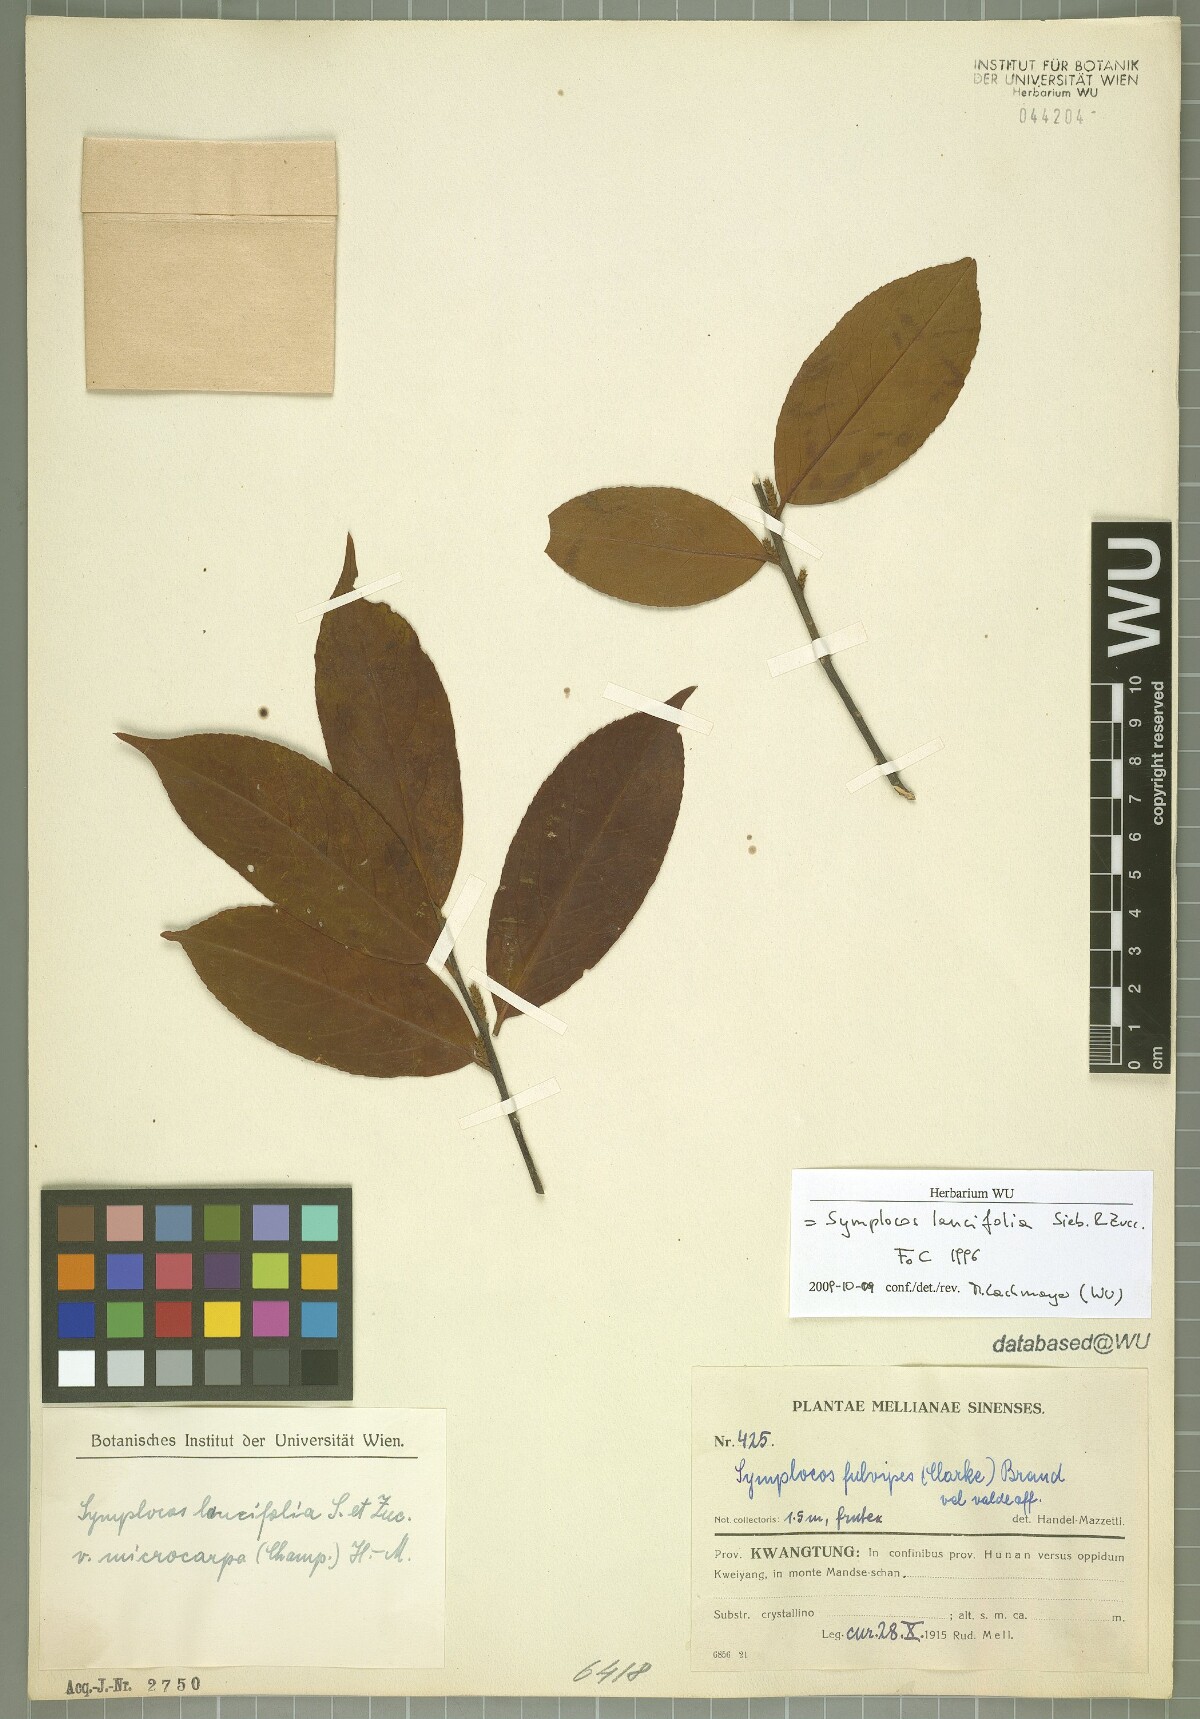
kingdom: Plantae
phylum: Tracheophyta
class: Magnoliopsida
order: Ericales
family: Symplocaceae
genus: Symplocos
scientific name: Symplocos lancifolia
